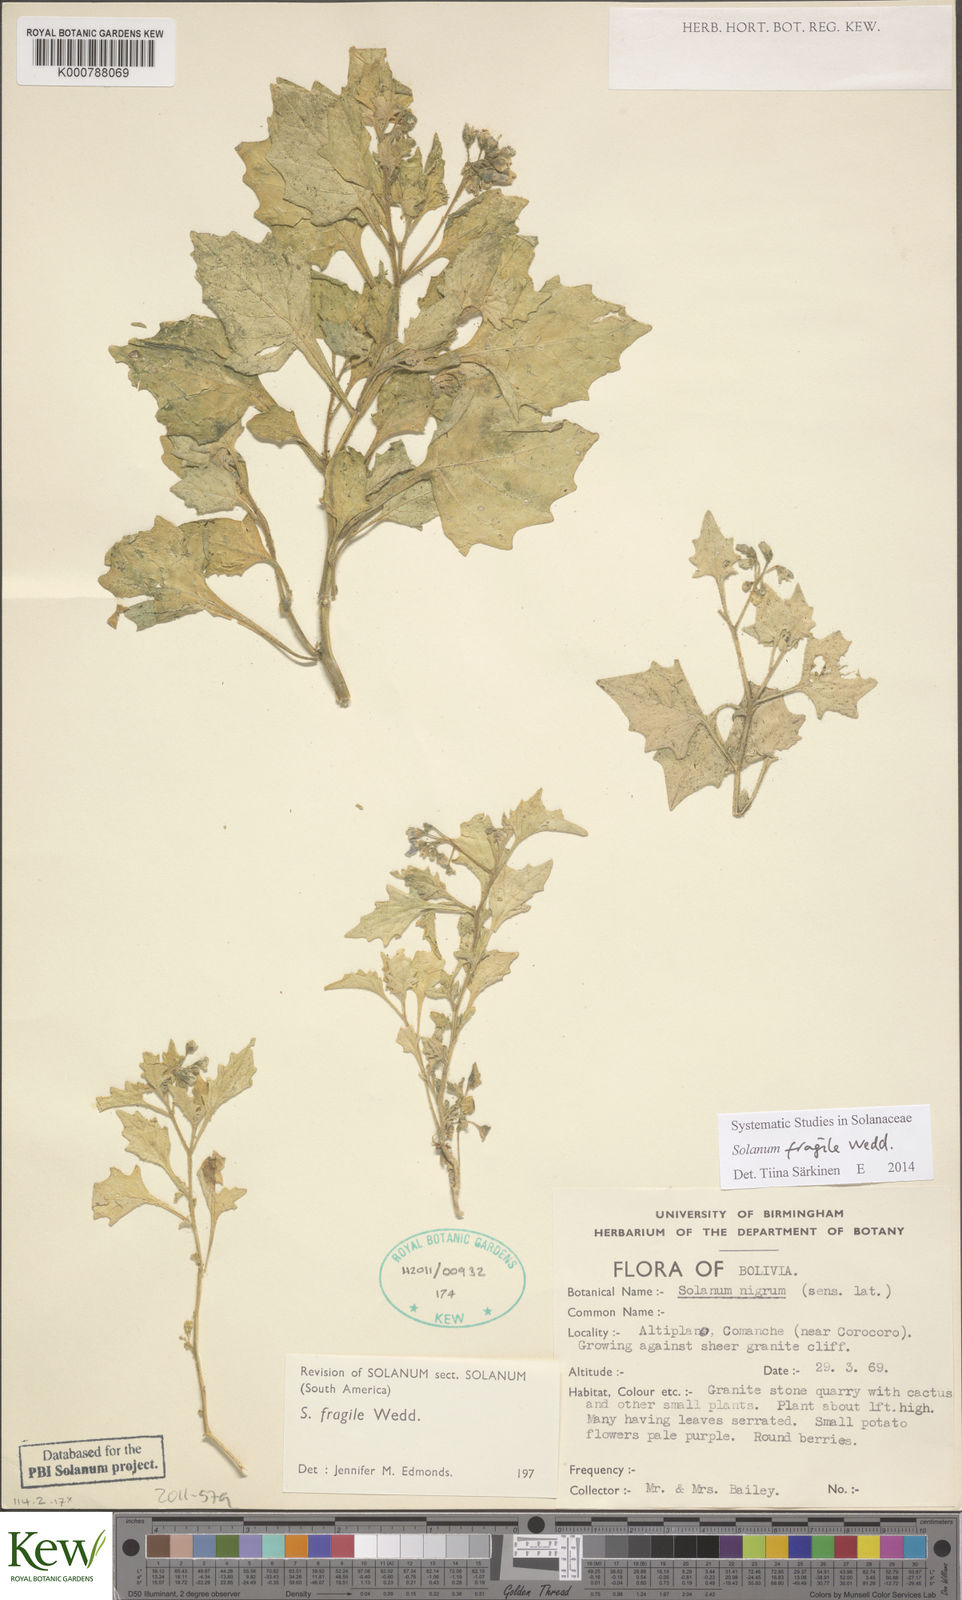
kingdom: Plantae
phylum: Tracheophyta
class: Magnoliopsida
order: Solanales
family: Solanaceae
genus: Solanum
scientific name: Solanum fragile
